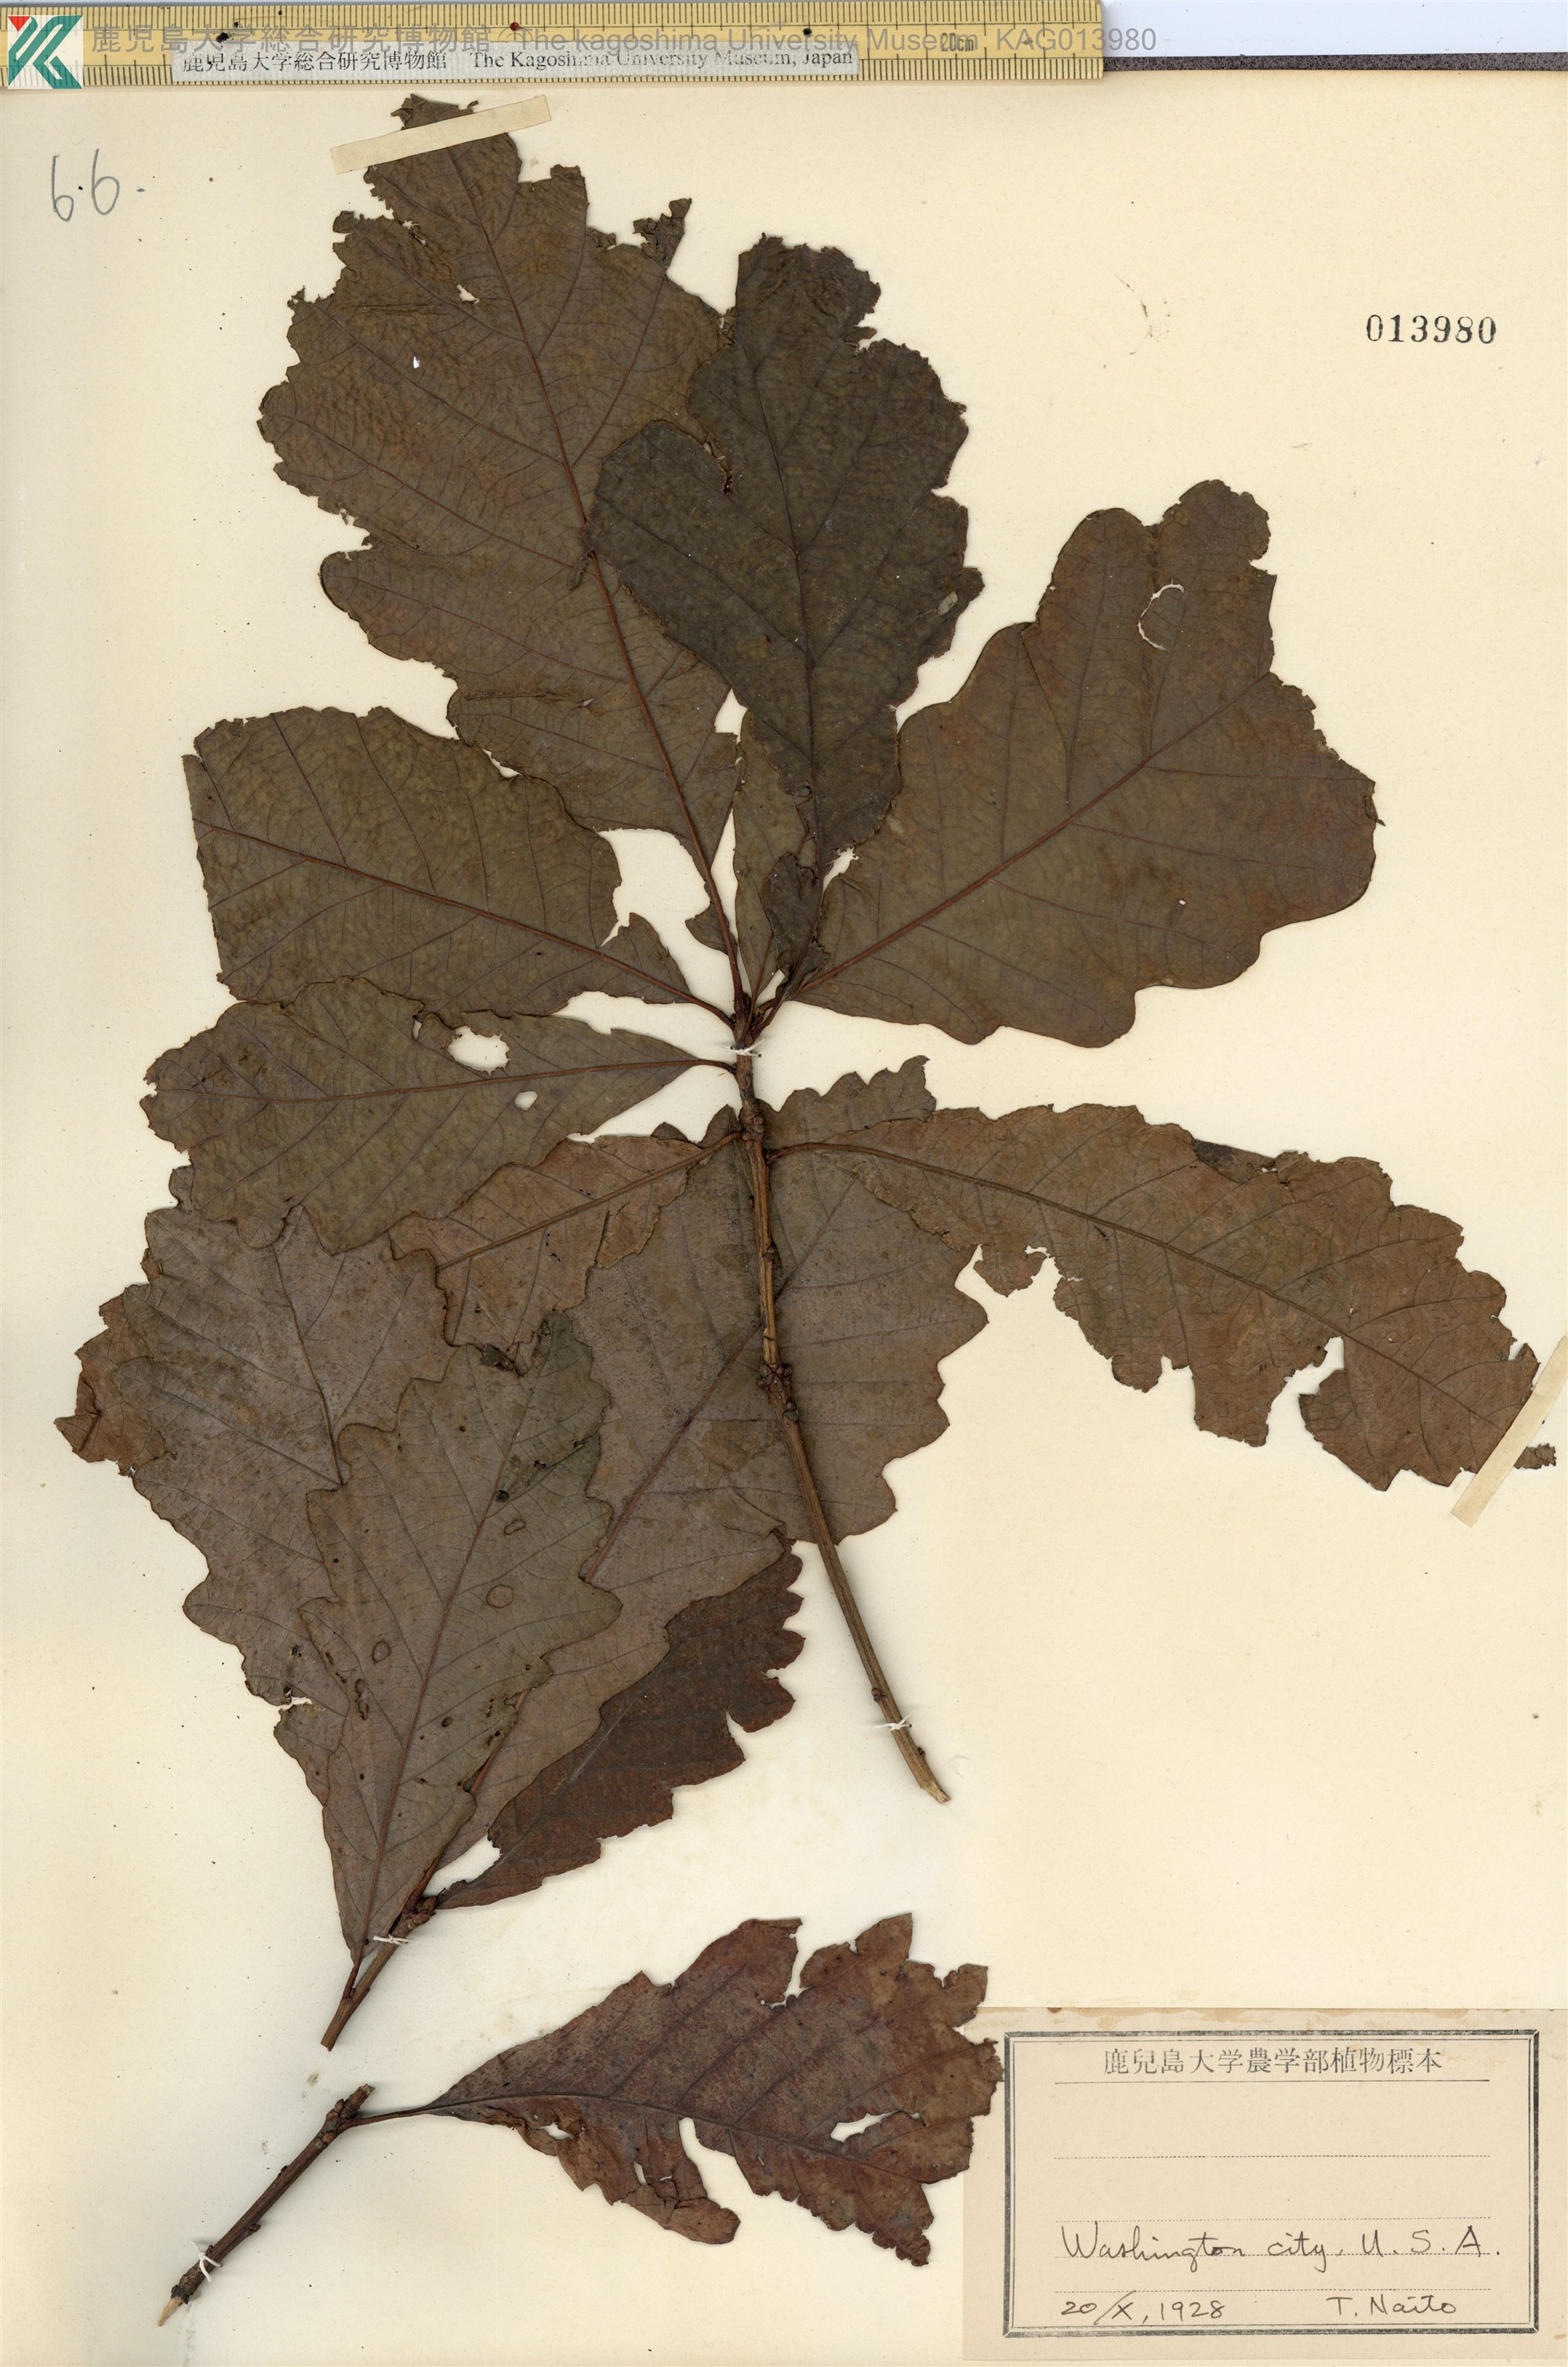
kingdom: Plantae
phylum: Tracheophyta
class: Magnoliopsida
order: Fagales
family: Fagaceae
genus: Quercus
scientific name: Quercus macrocarpa
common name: Bur oak
